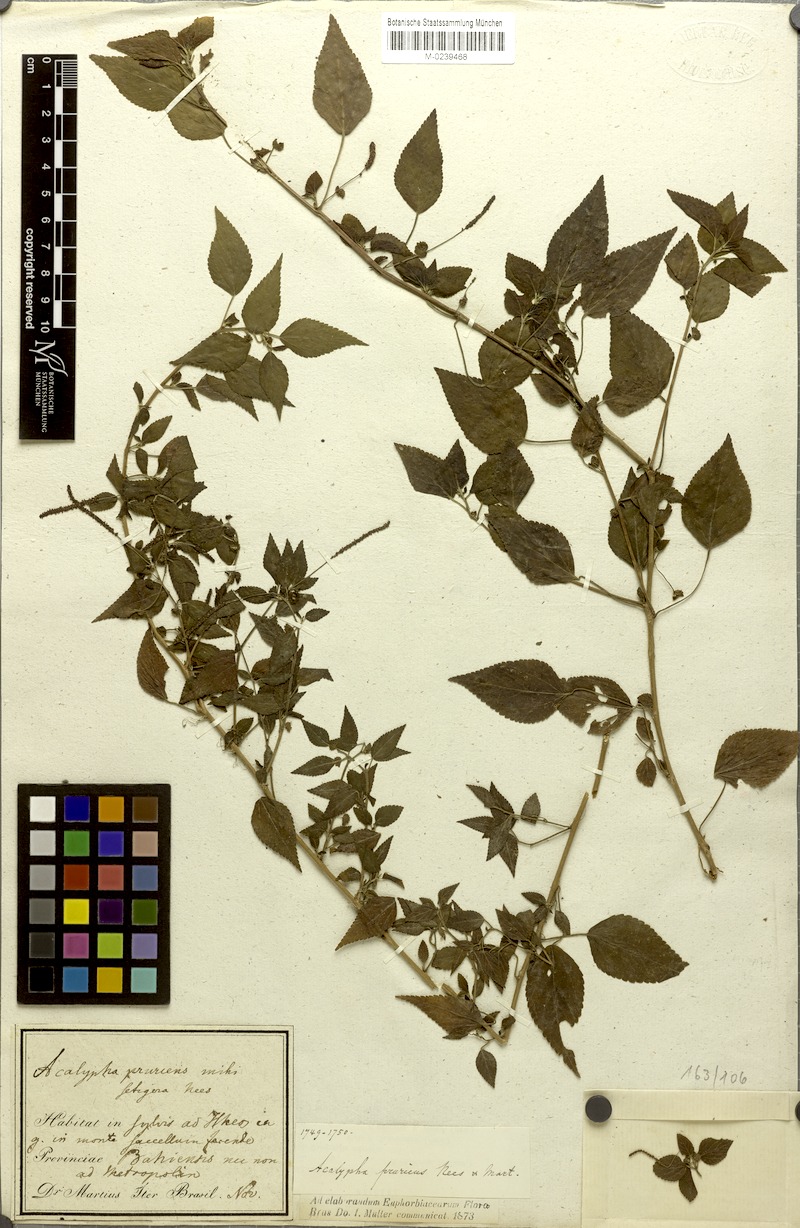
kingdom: Plantae
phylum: Tracheophyta
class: Magnoliopsida
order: Malpighiales
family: Euphorbiaceae
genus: Acalypha
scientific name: Acalypha pruriens
